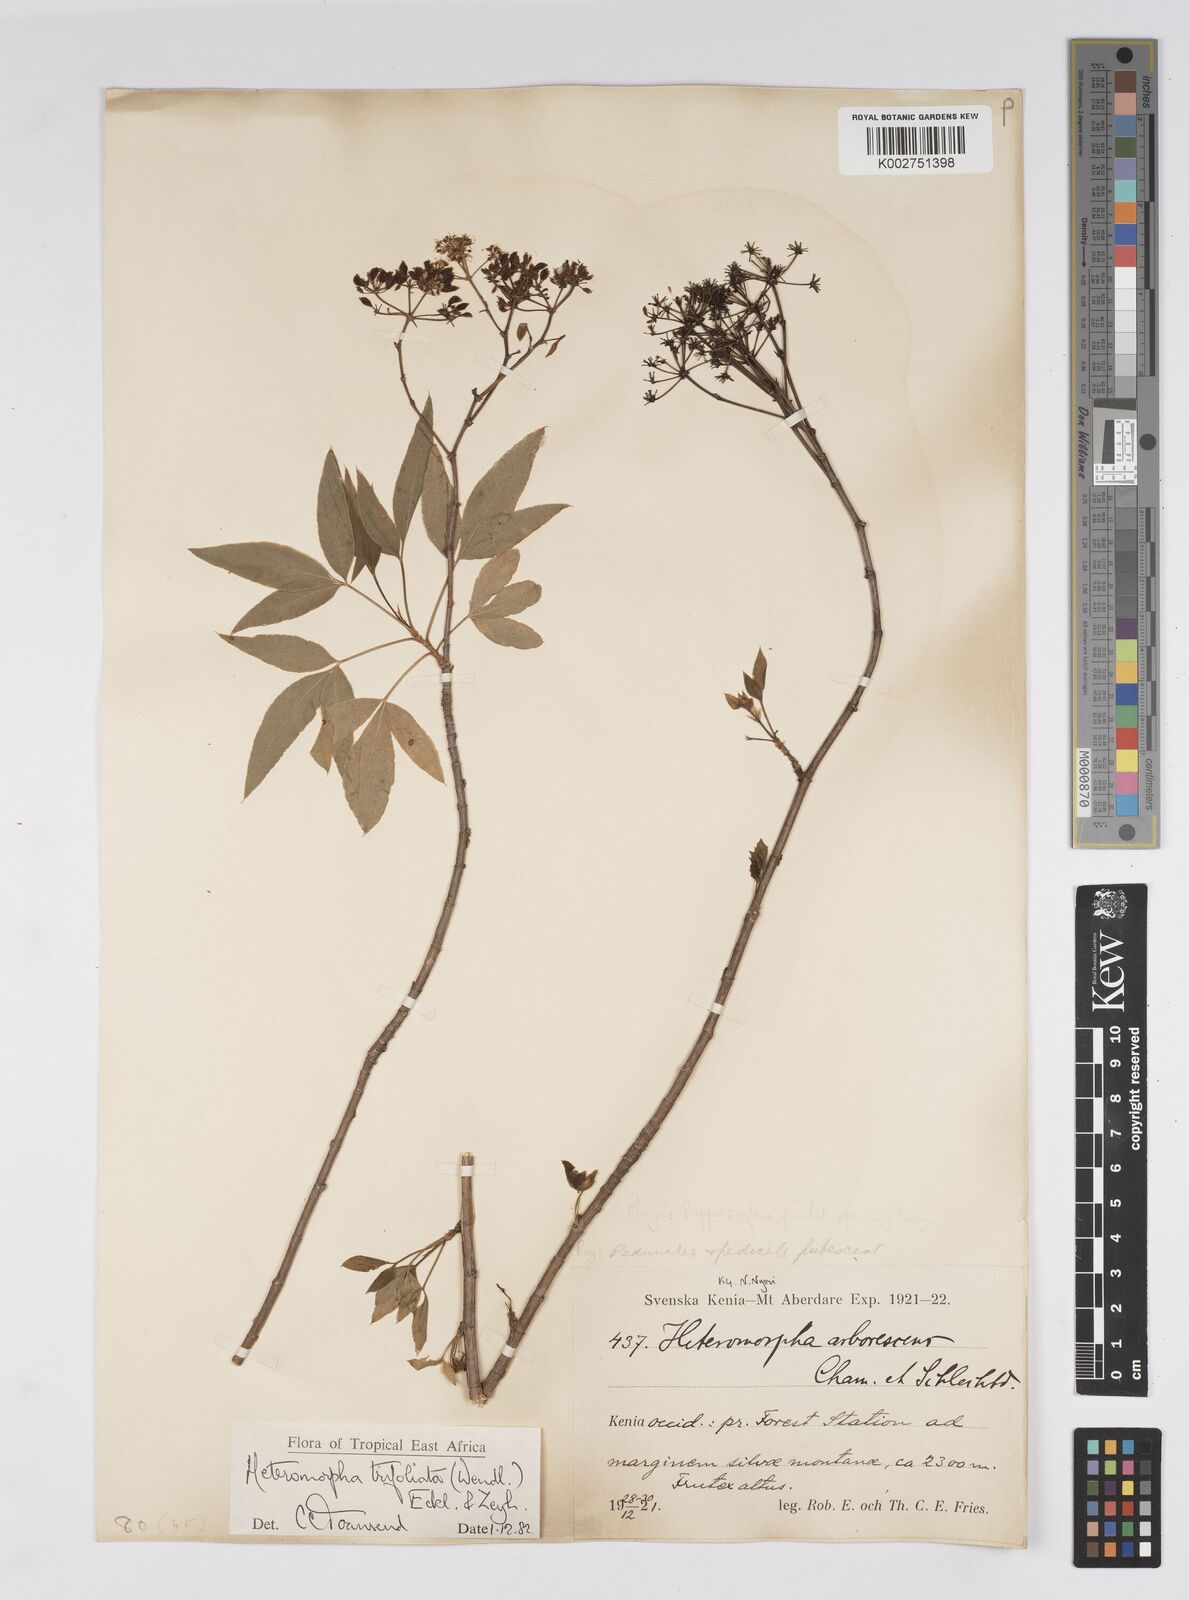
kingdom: Plantae
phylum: Tracheophyta
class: Magnoliopsida
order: Apiales
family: Apiaceae
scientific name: Apiaceae
